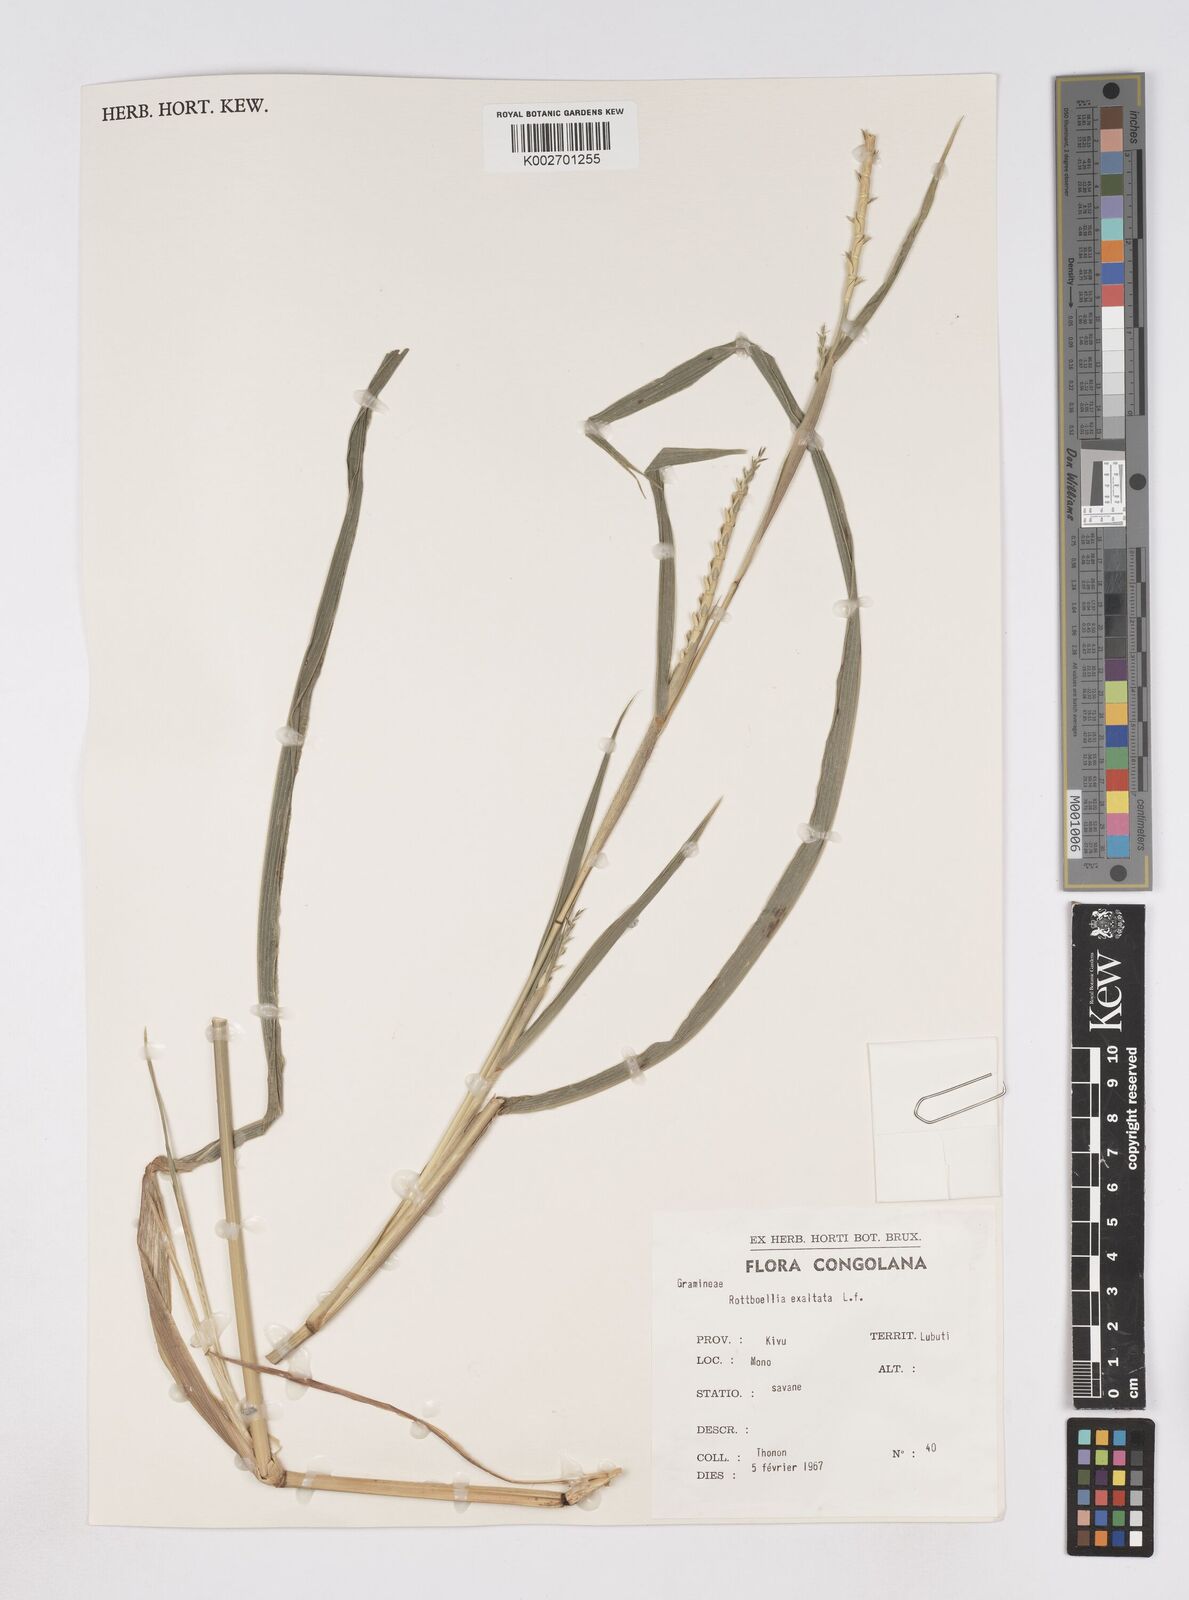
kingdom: Plantae
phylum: Tracheophyta
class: Liliopsida
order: Poales
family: Poaceae
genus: Rottboellia
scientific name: Rottboellia
